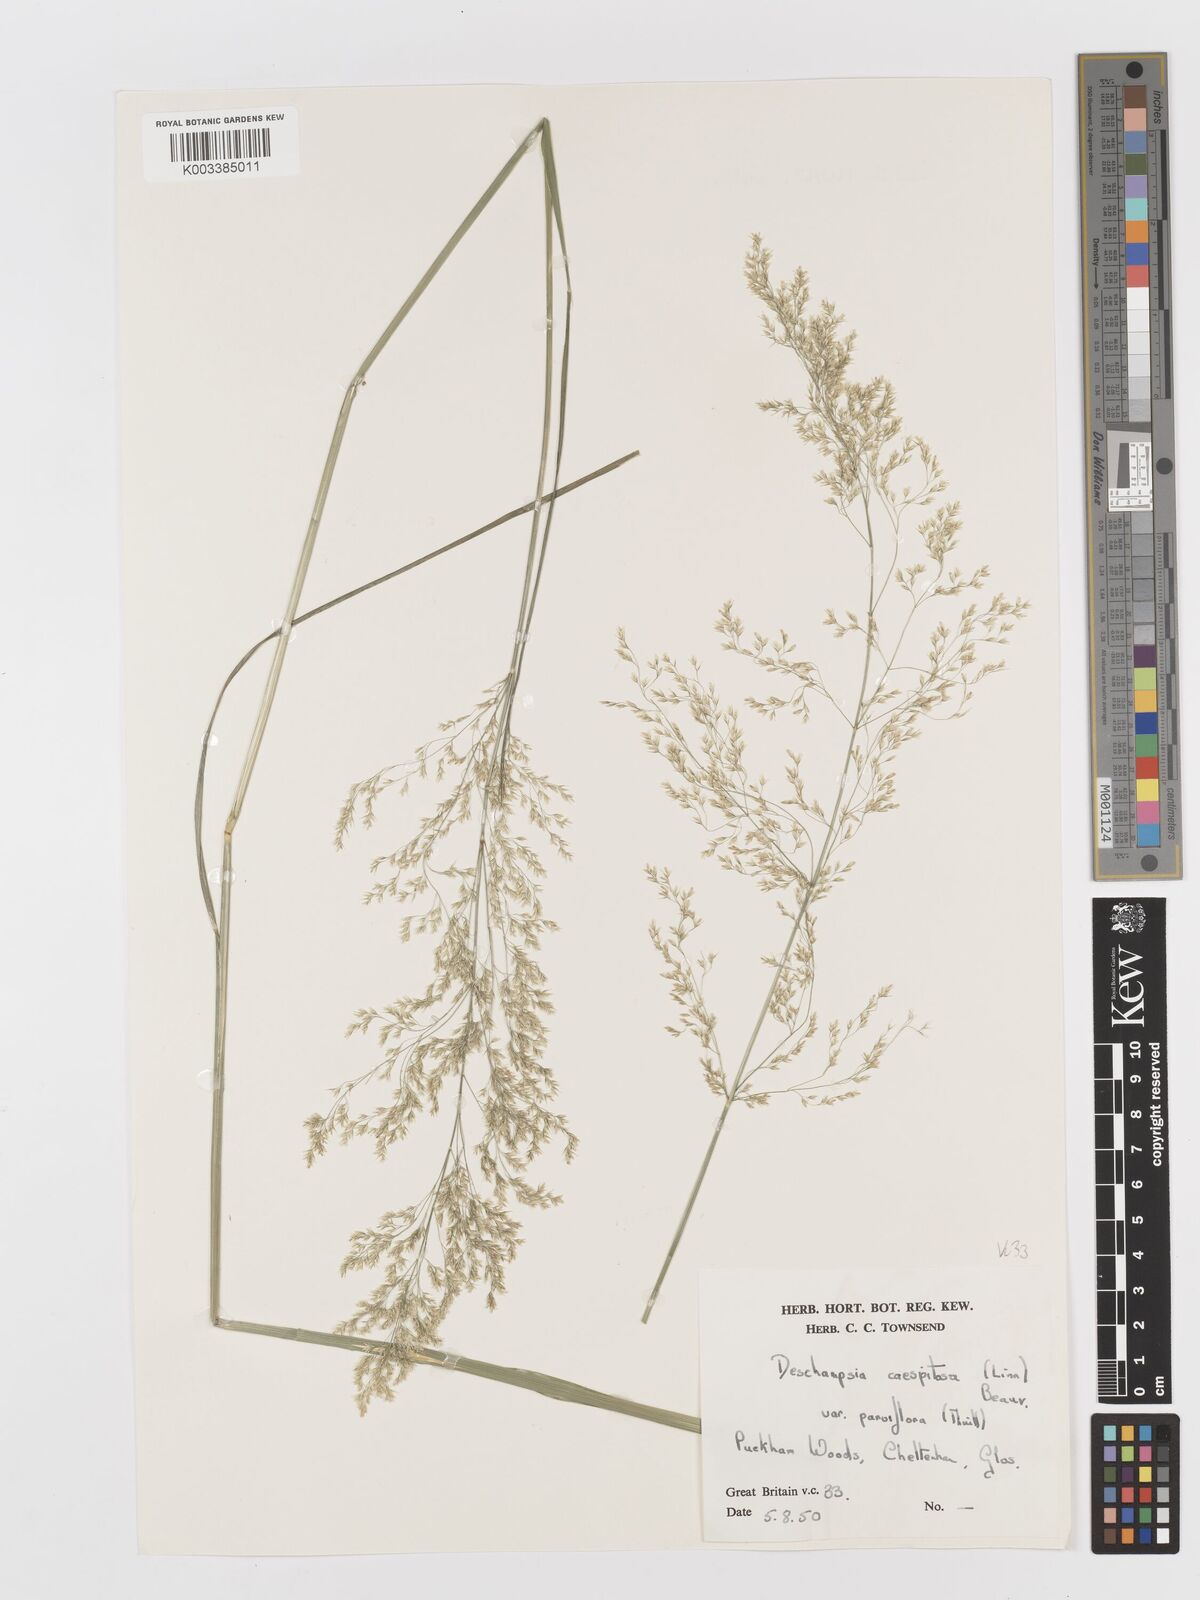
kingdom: Plantae
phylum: Tracheophyta
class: Liliopsida
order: Poales
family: Poaceae
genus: Deschampsia
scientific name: Deschampsia cespitosa
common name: Tufted hair-grass
